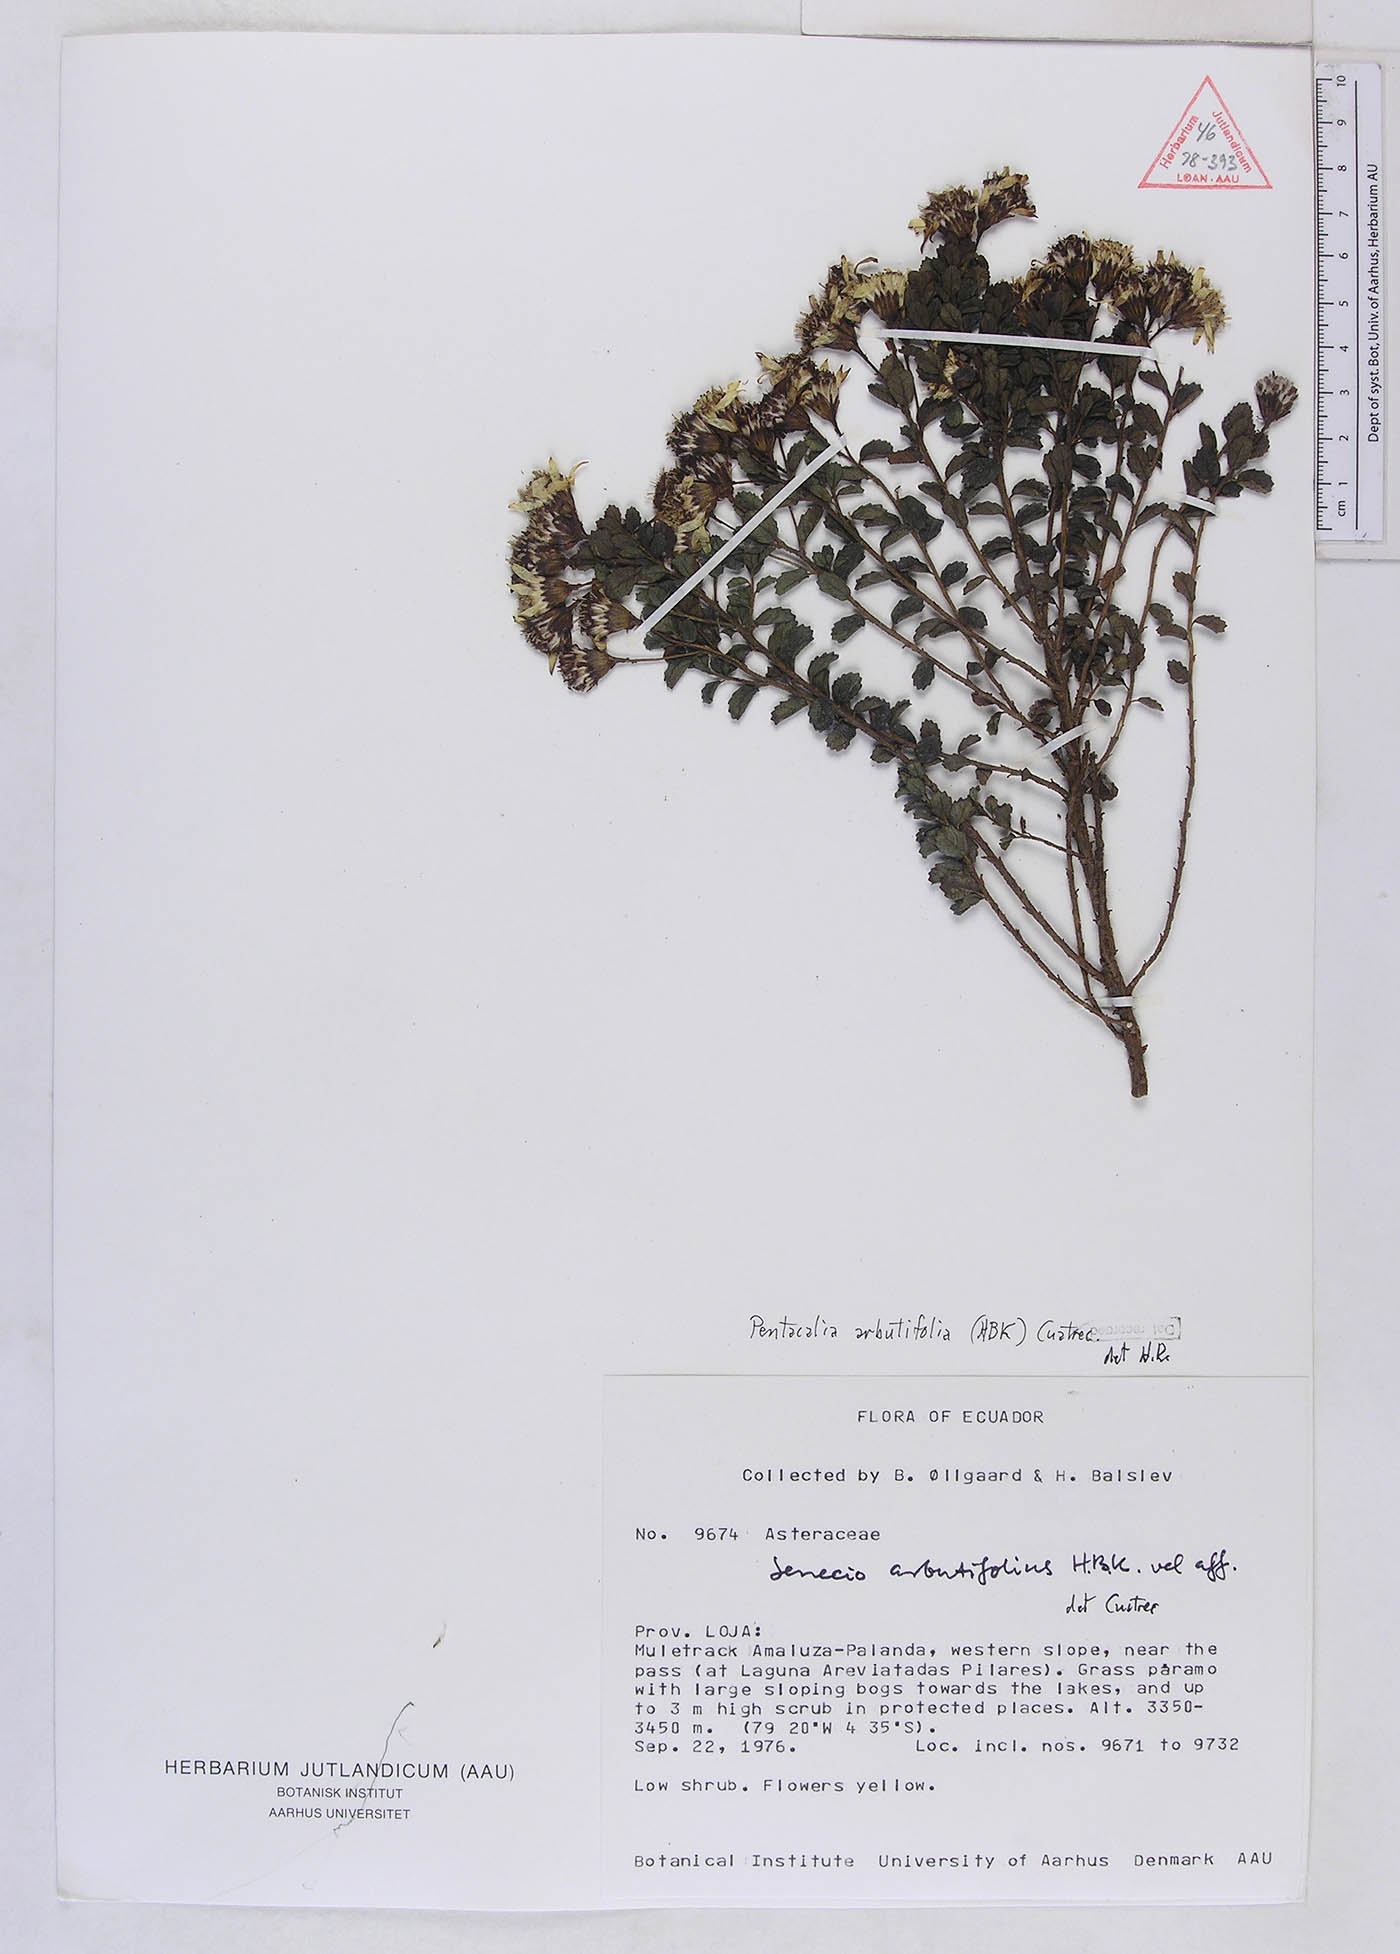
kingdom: Plantae
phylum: Tracheophyta
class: Magnoliopsida
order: Asterales
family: Asteraceae
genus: Monticalia
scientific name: Monticalia arbutifolia
